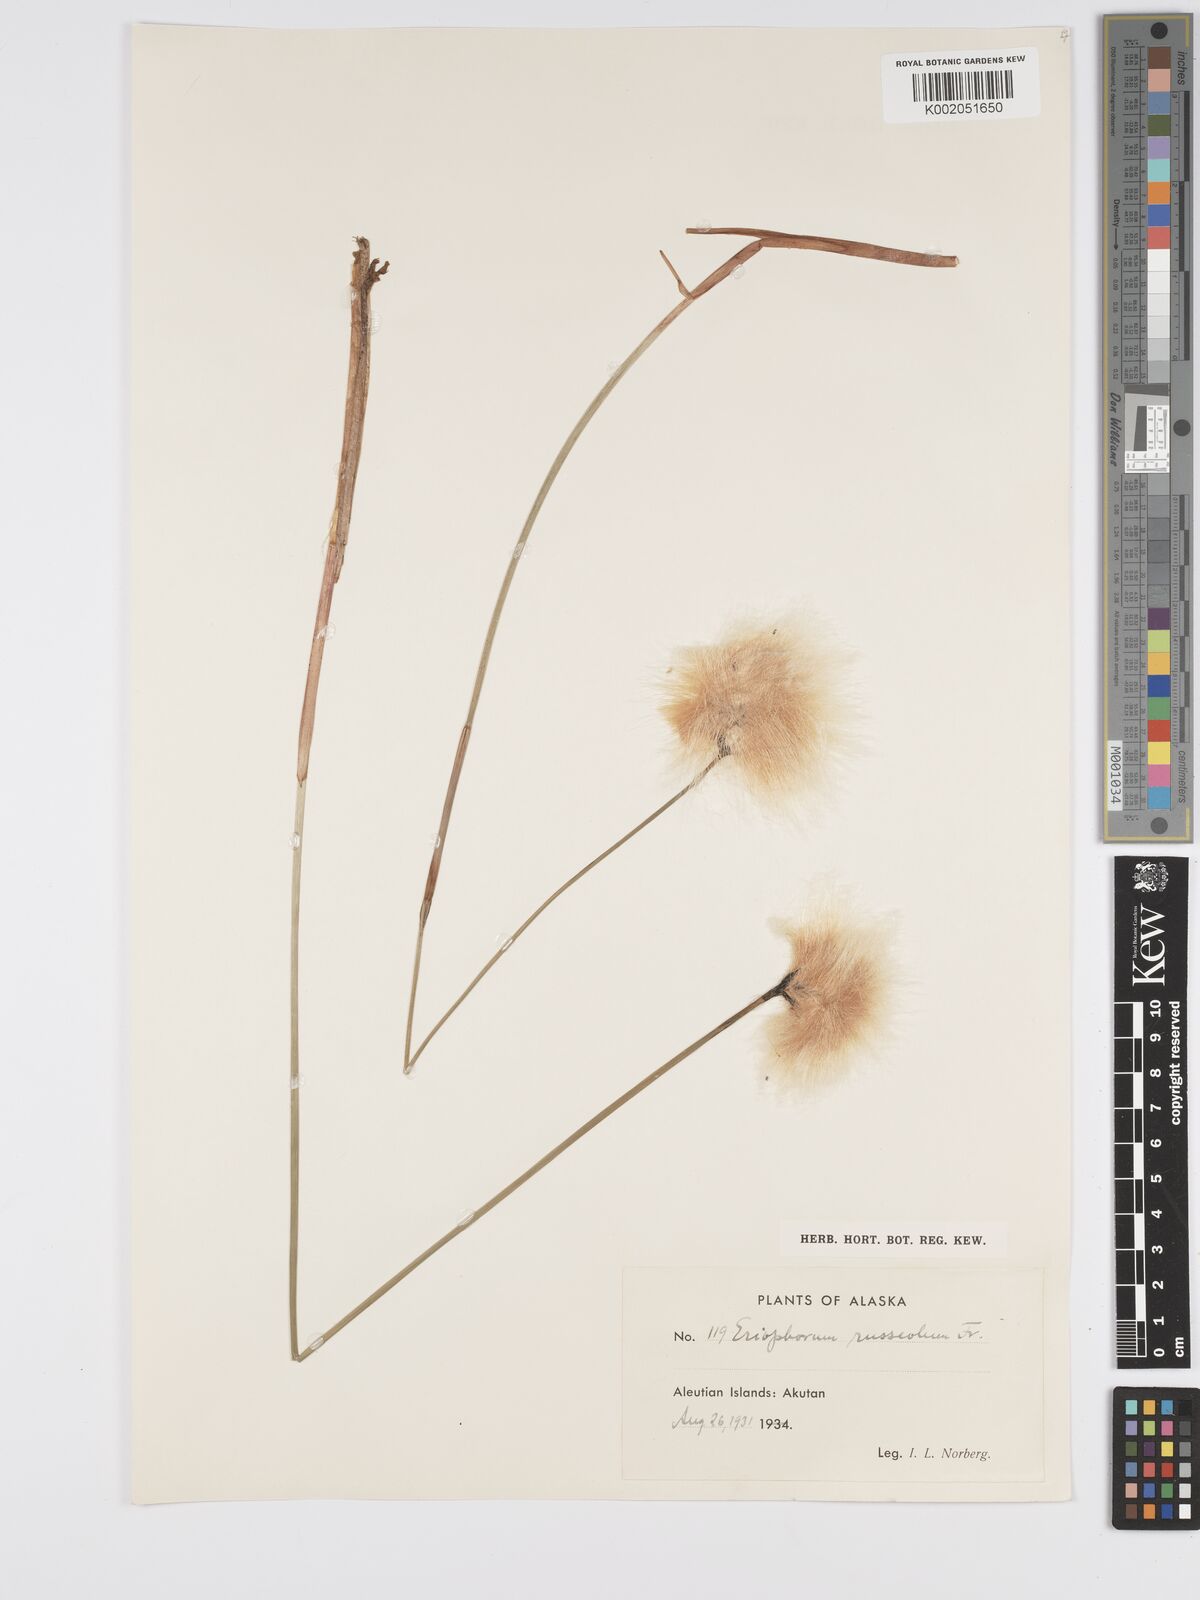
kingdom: Plantae
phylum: Tracheophyta
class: Liliopsida
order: Poales
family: Cyperaceae
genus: Eriophorum
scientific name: Eriophorum chamissonis
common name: Chamisso's cottongrass
